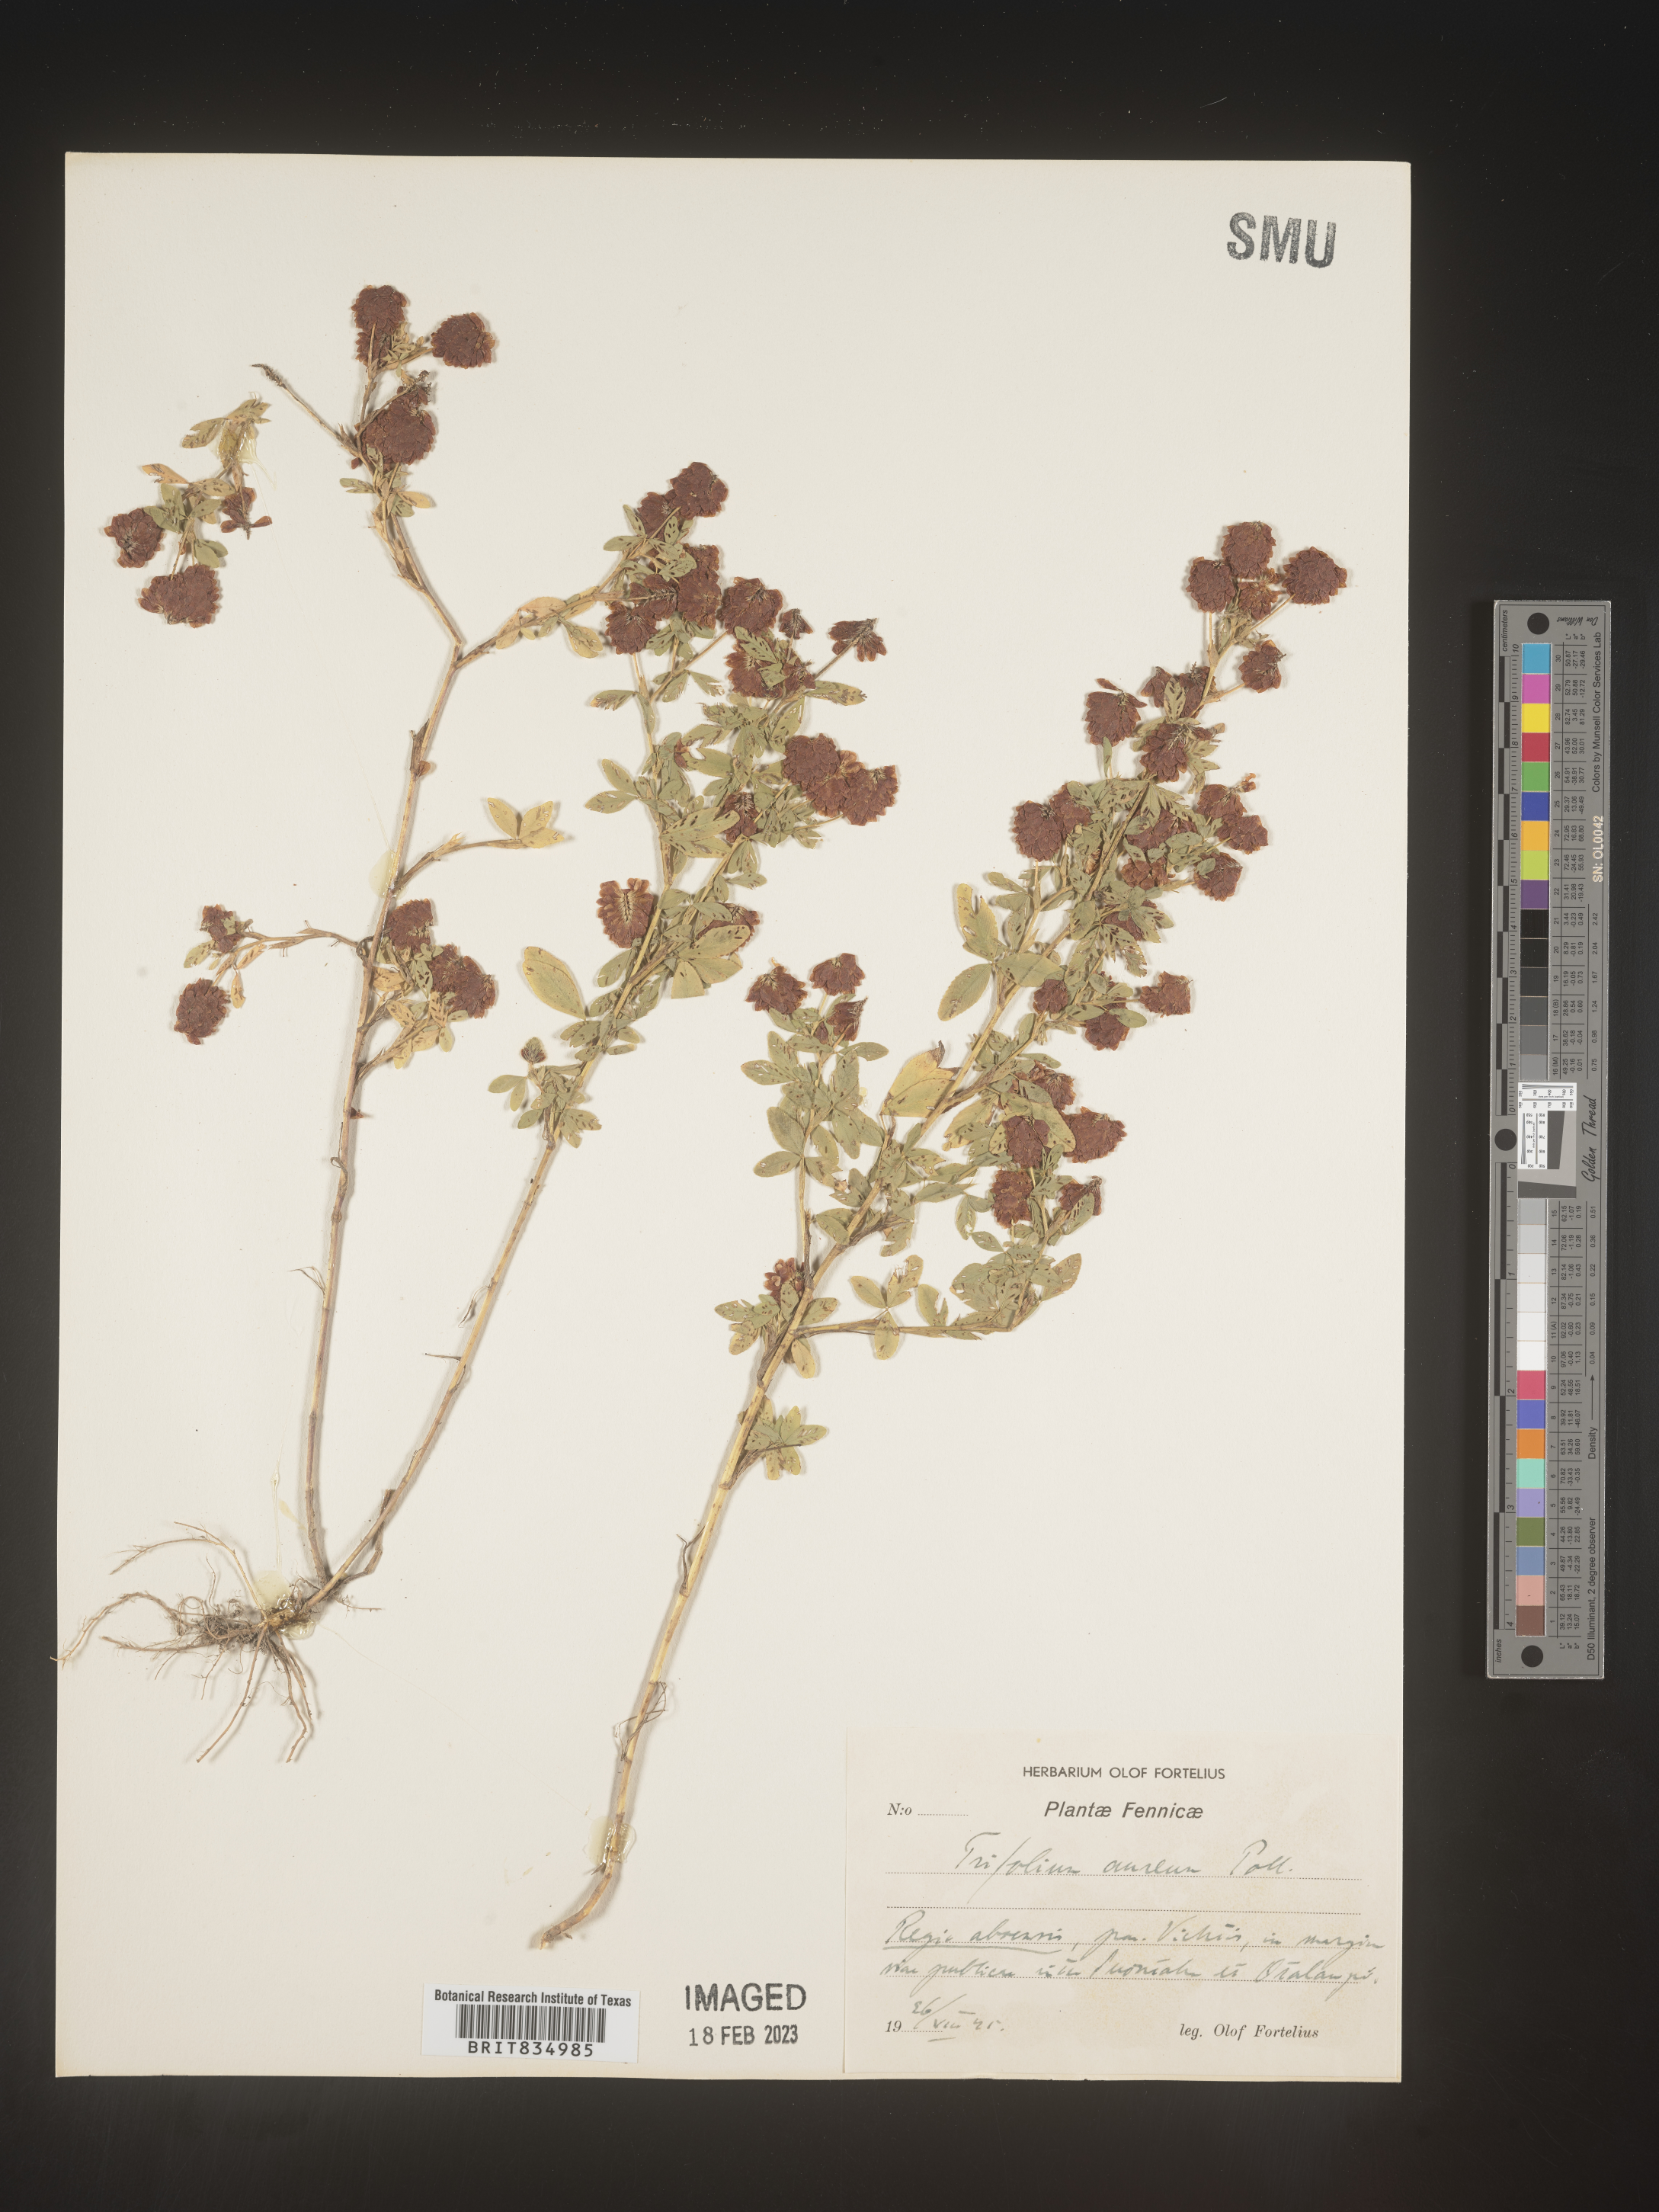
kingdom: Plantae
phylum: Tracheophyta
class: Magnoliopsida
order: Fabales
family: Fabaceae
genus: Trifolium
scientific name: Trifolium
